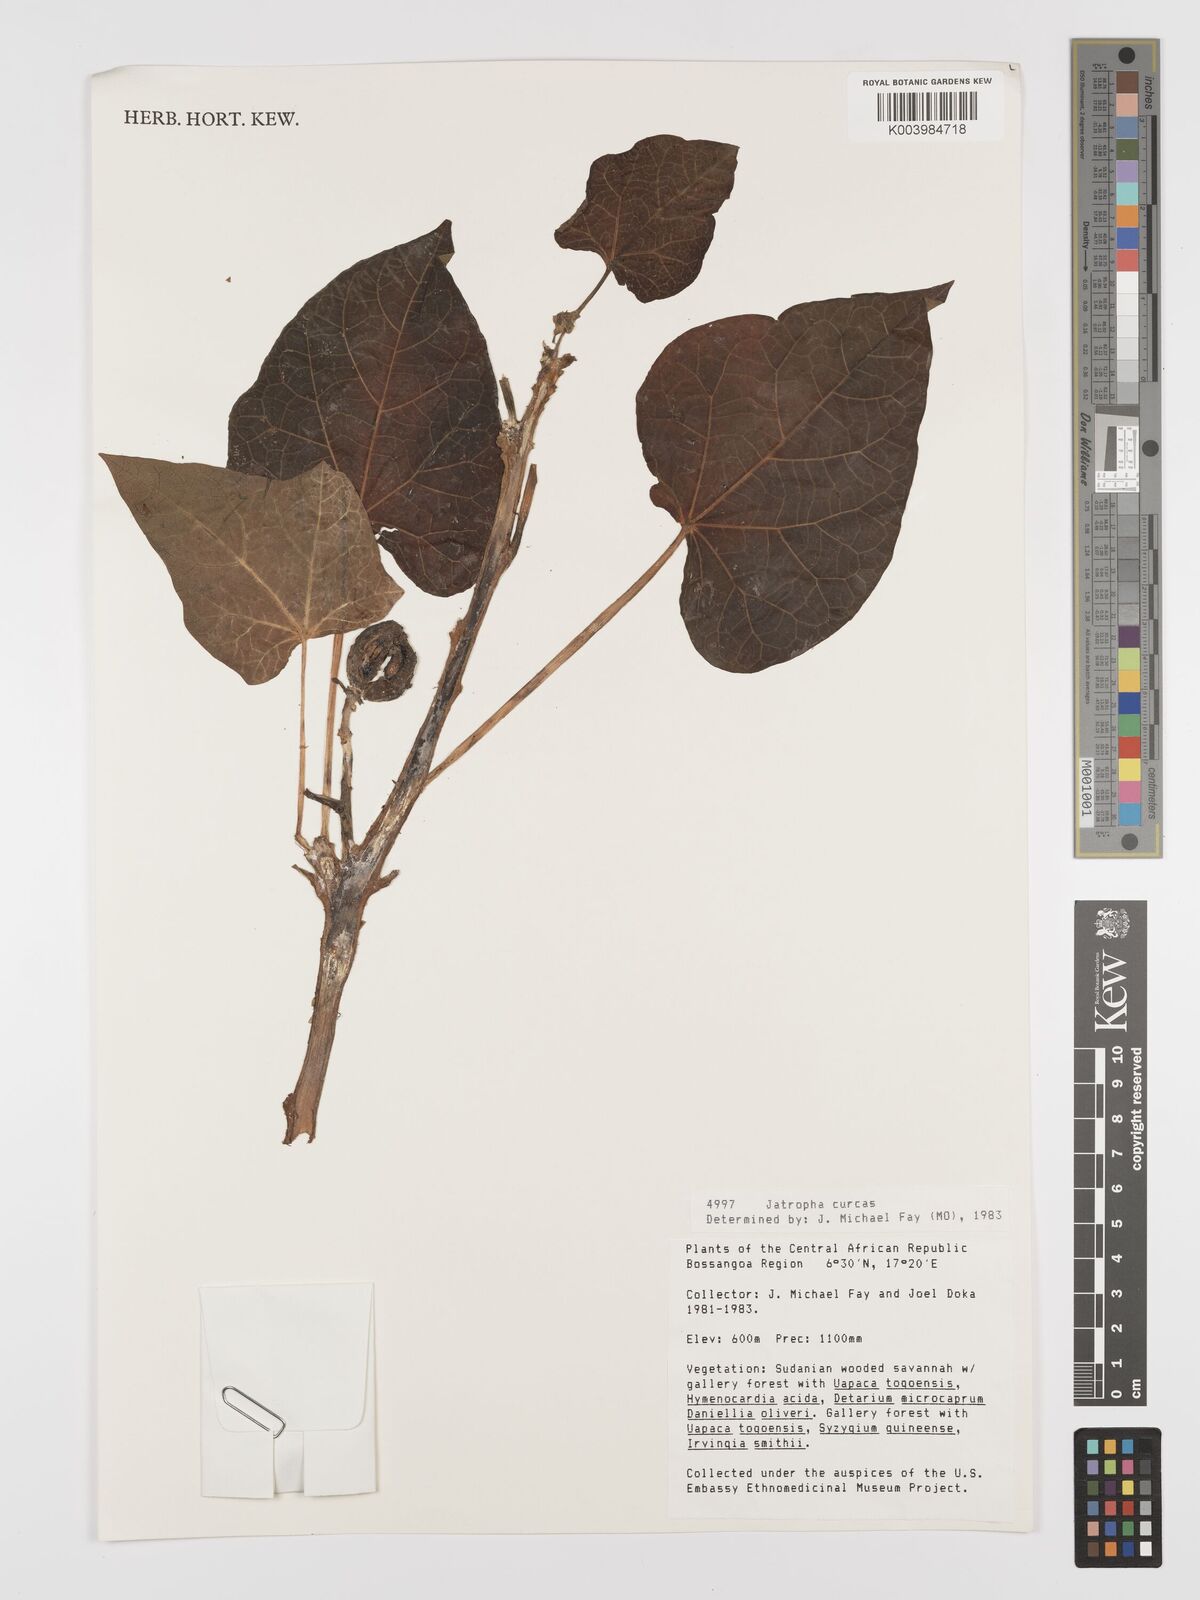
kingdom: Plantae
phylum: Tracheophyta
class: Magnoliopsida
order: Malpighiales
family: Euphorbiaceae
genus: Jatropha
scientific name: Jatropha curcas
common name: Barbados nut
